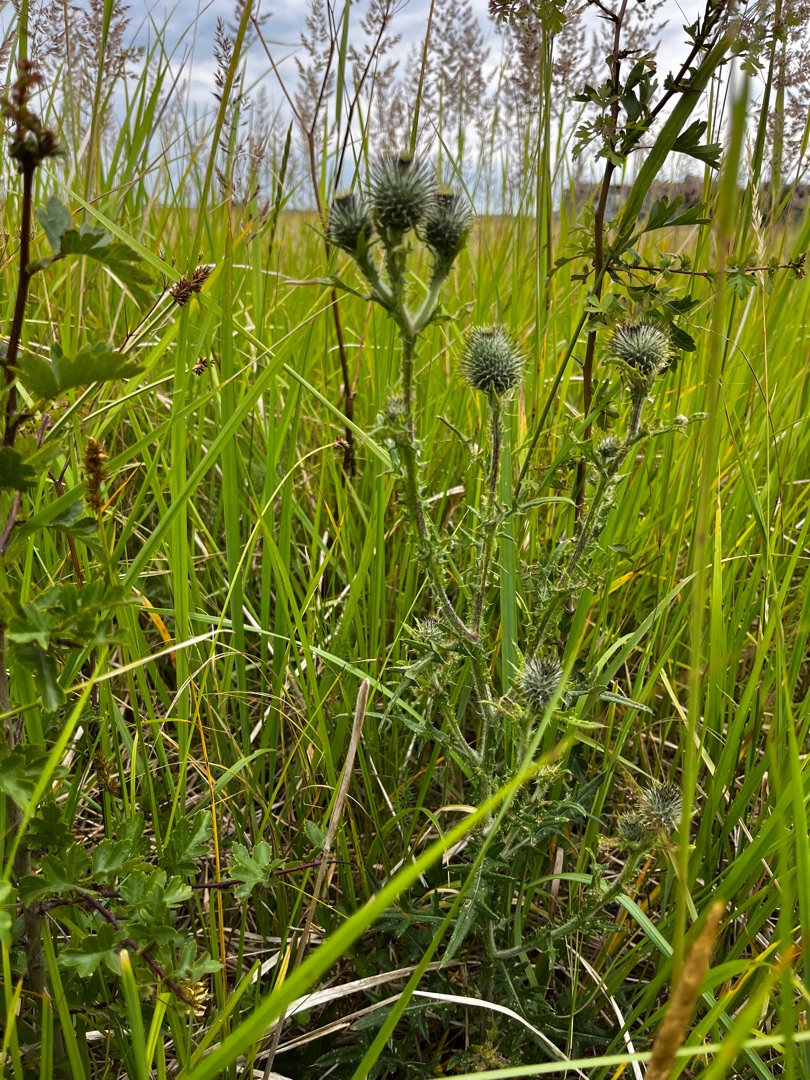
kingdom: Plantae
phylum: Tracheophyta
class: Magnoliopsida
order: Asterales
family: Asteraceae
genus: Cirsium
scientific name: Cirsium vulgare
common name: Horse-tidsel
